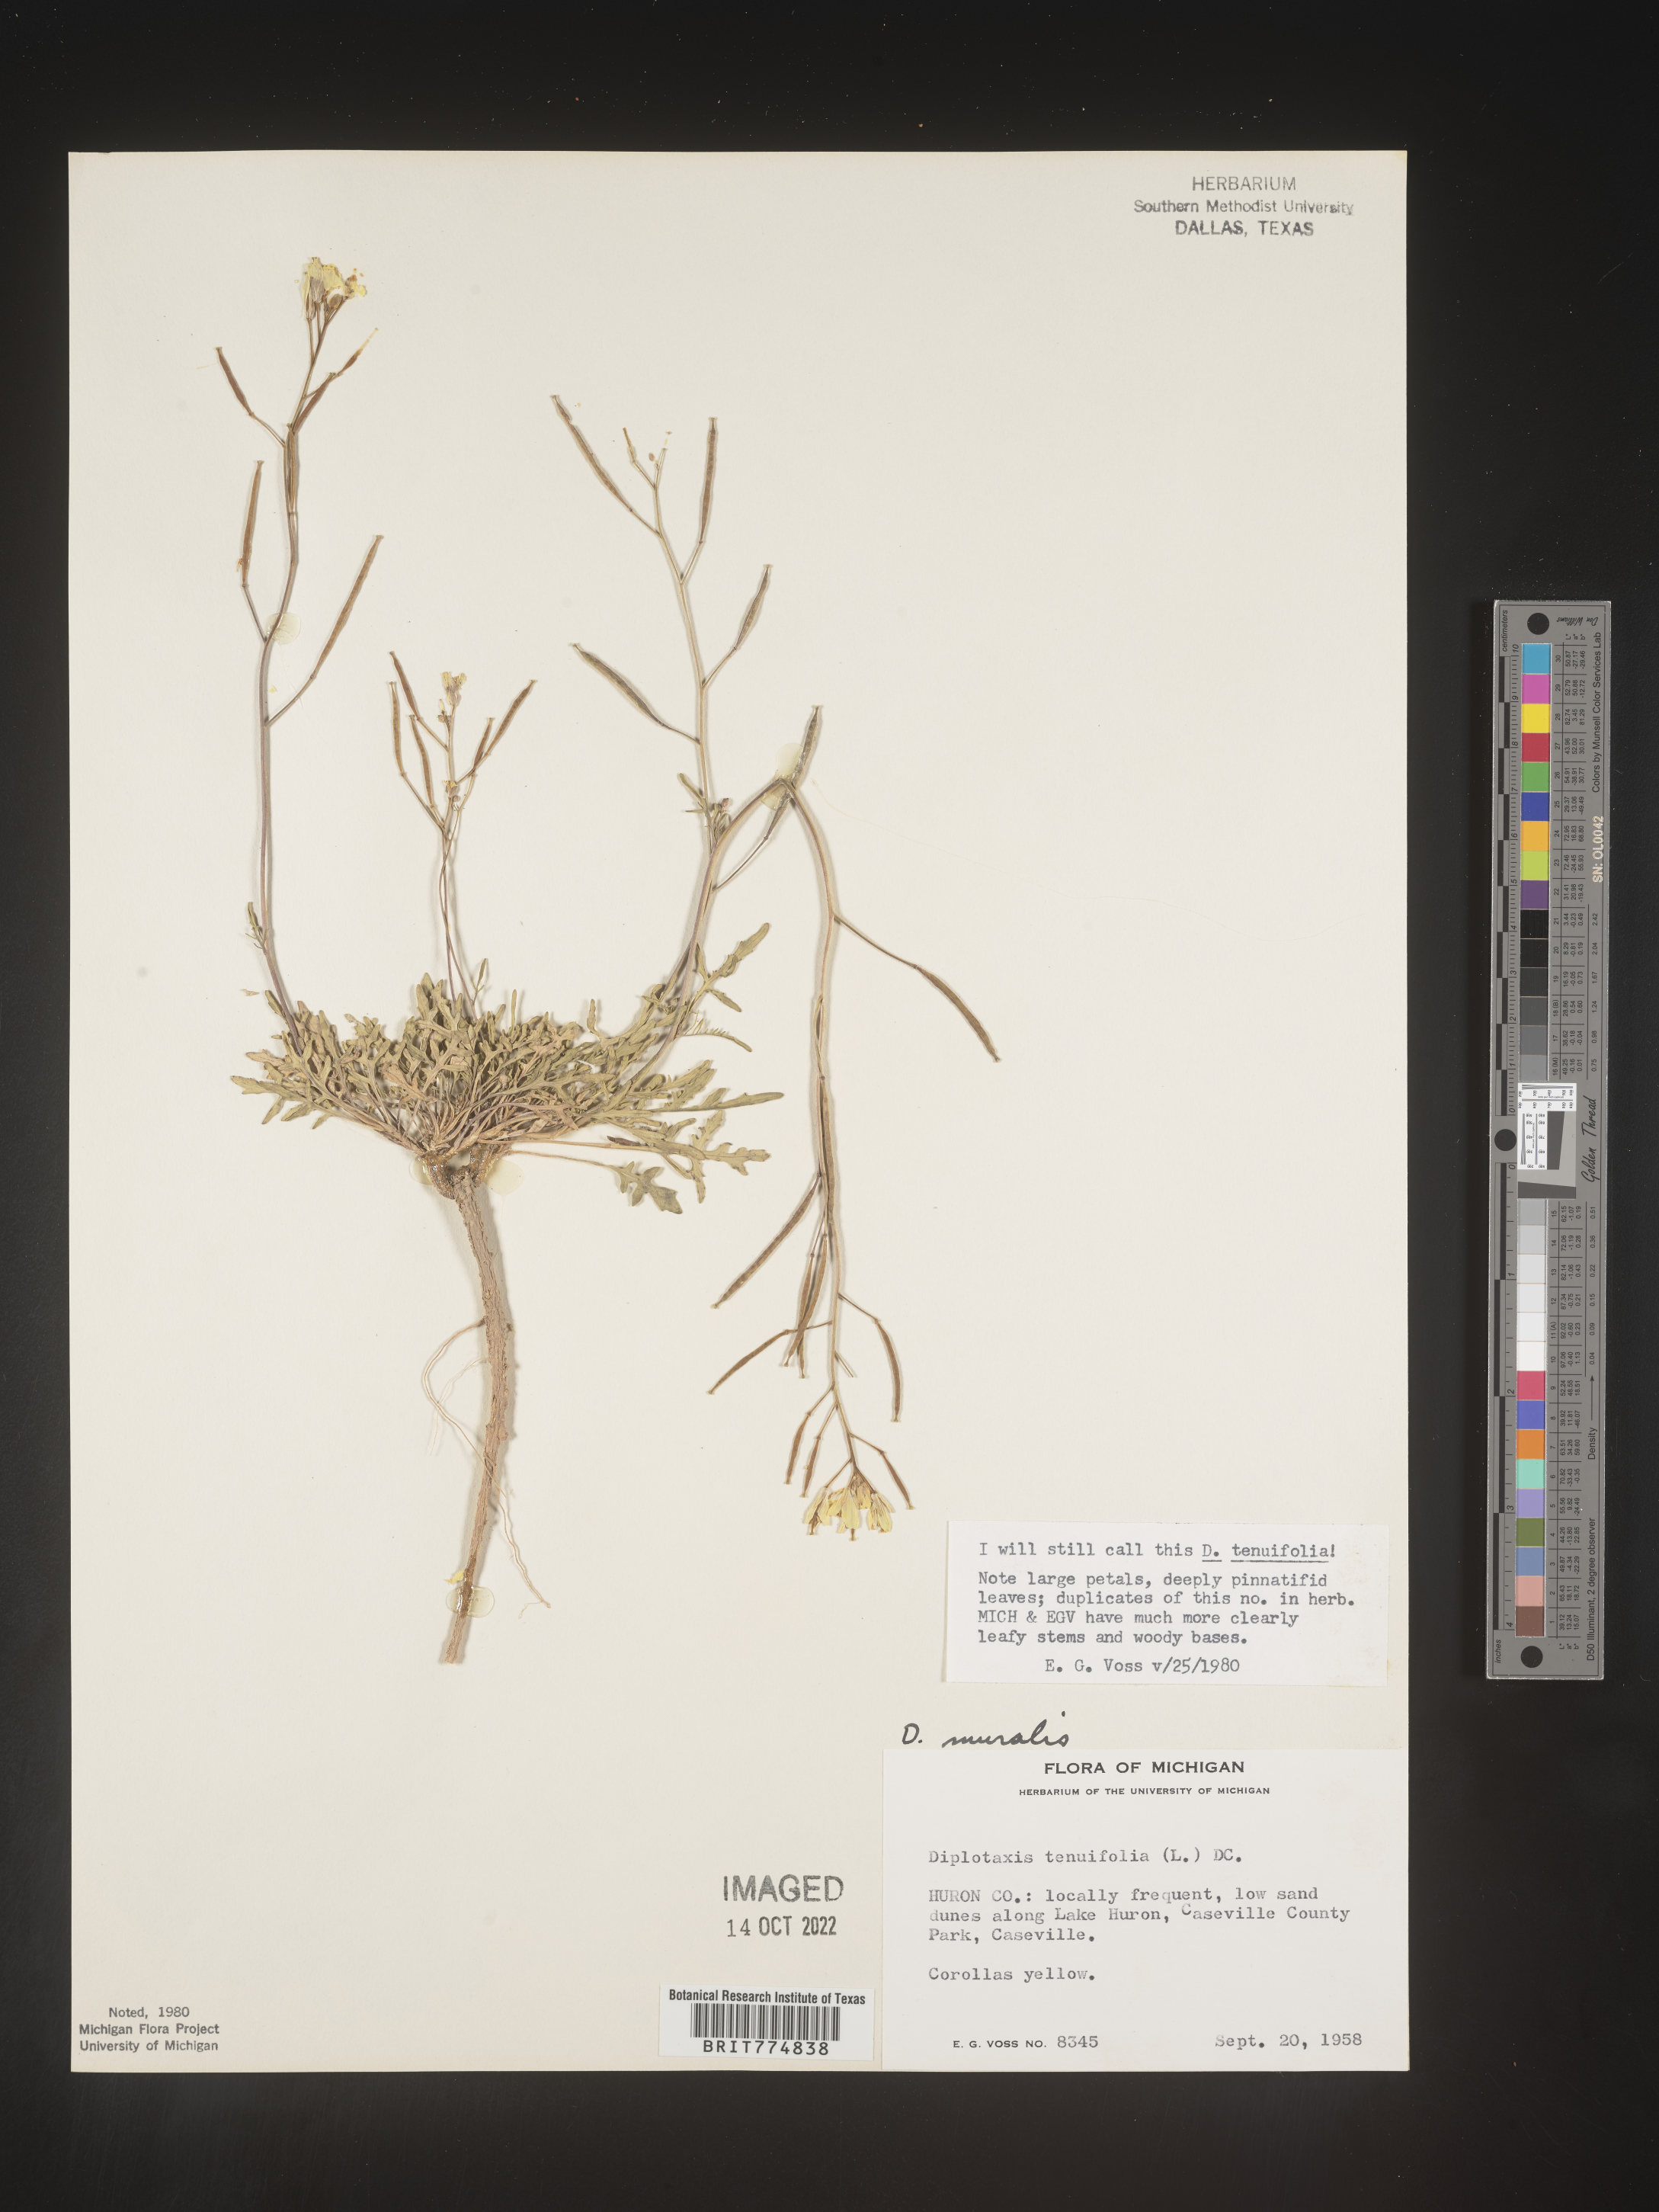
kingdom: Plantae
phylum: Tracheophyta
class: Magnoliopsida
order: Brassicales
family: Brassicaceae
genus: Diplotaxis
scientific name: Diplotaxis
